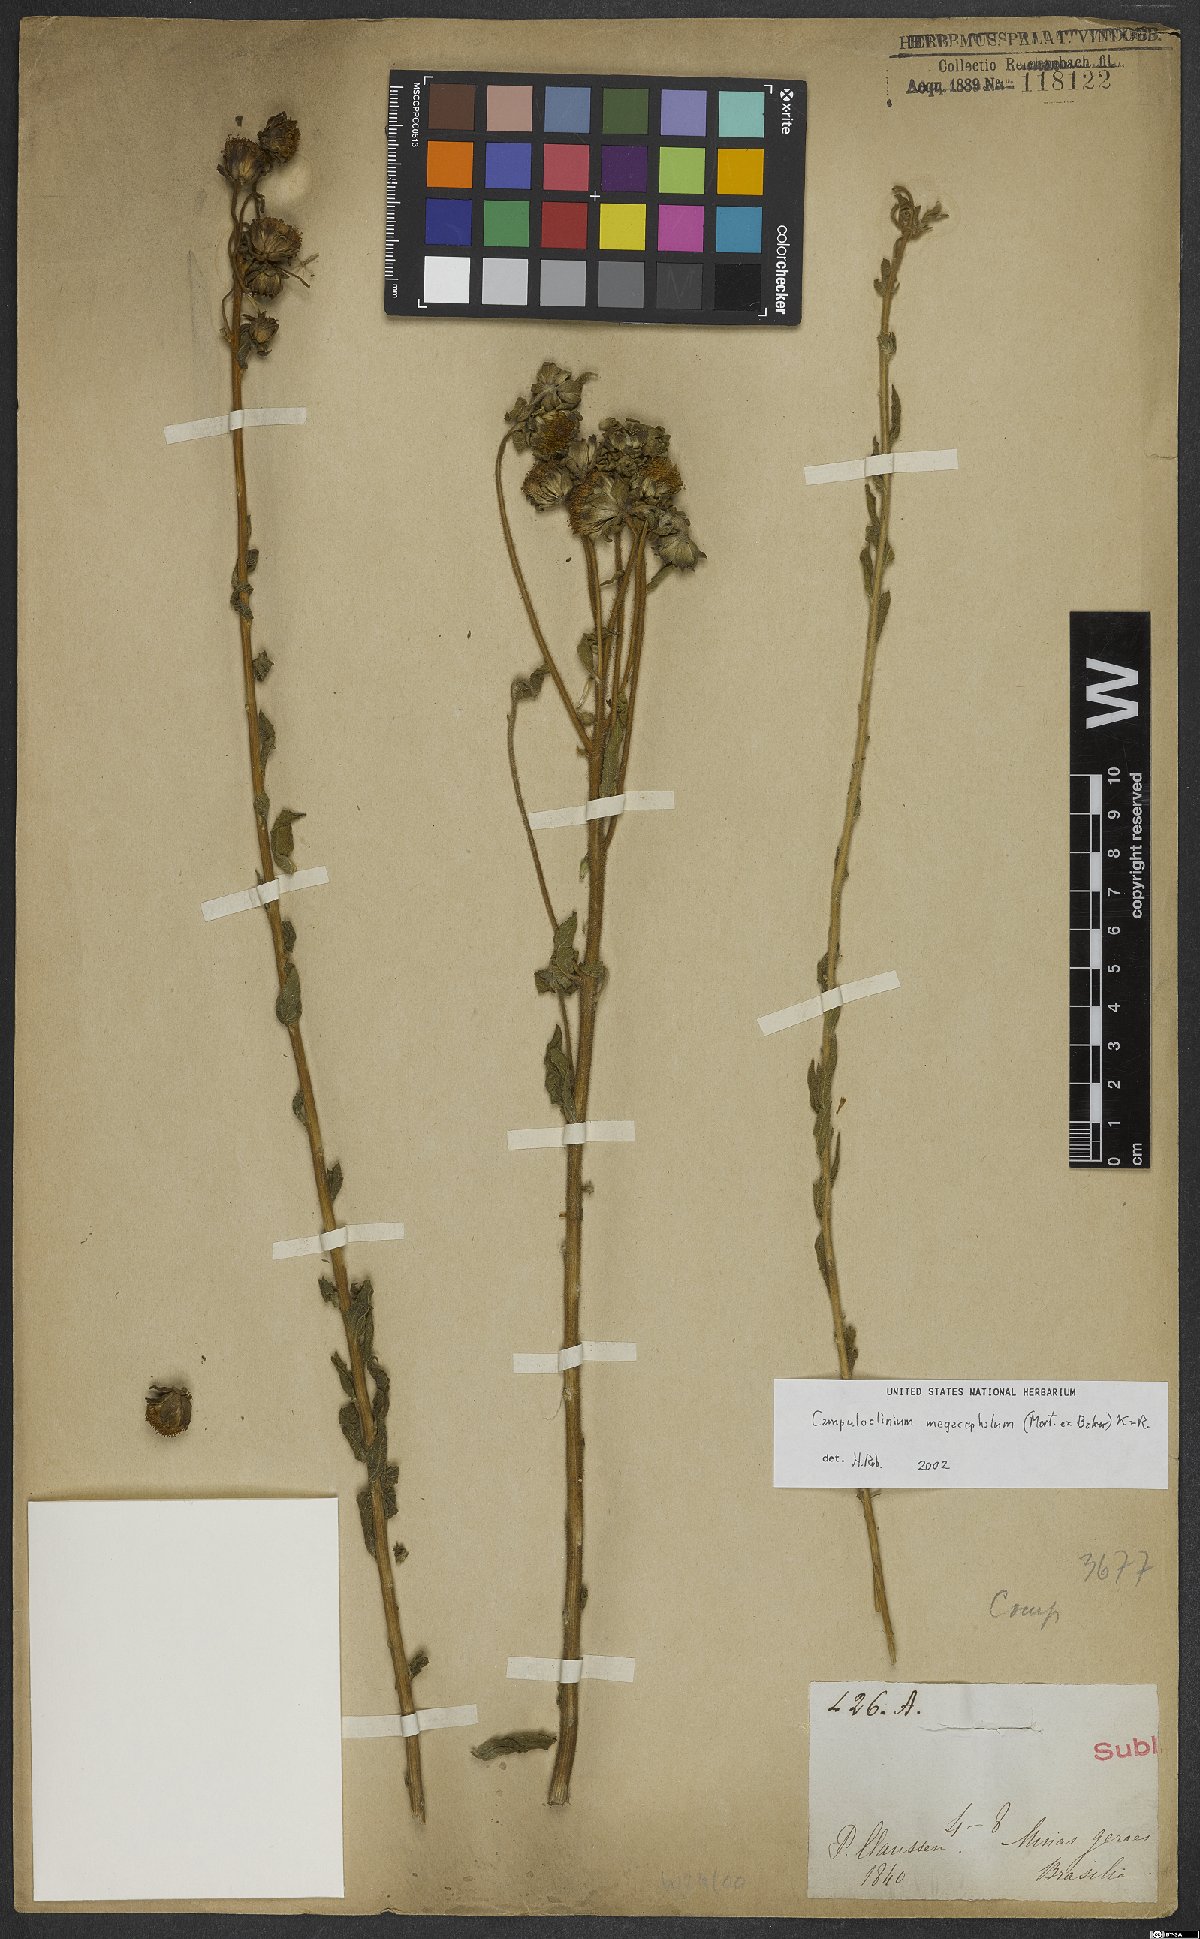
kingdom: Plantae
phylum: Tracheophyta
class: Magnoliopsida
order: Asterales
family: Asteraceae
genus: Campuloclinium
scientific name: Campuloclinium megacephalum
